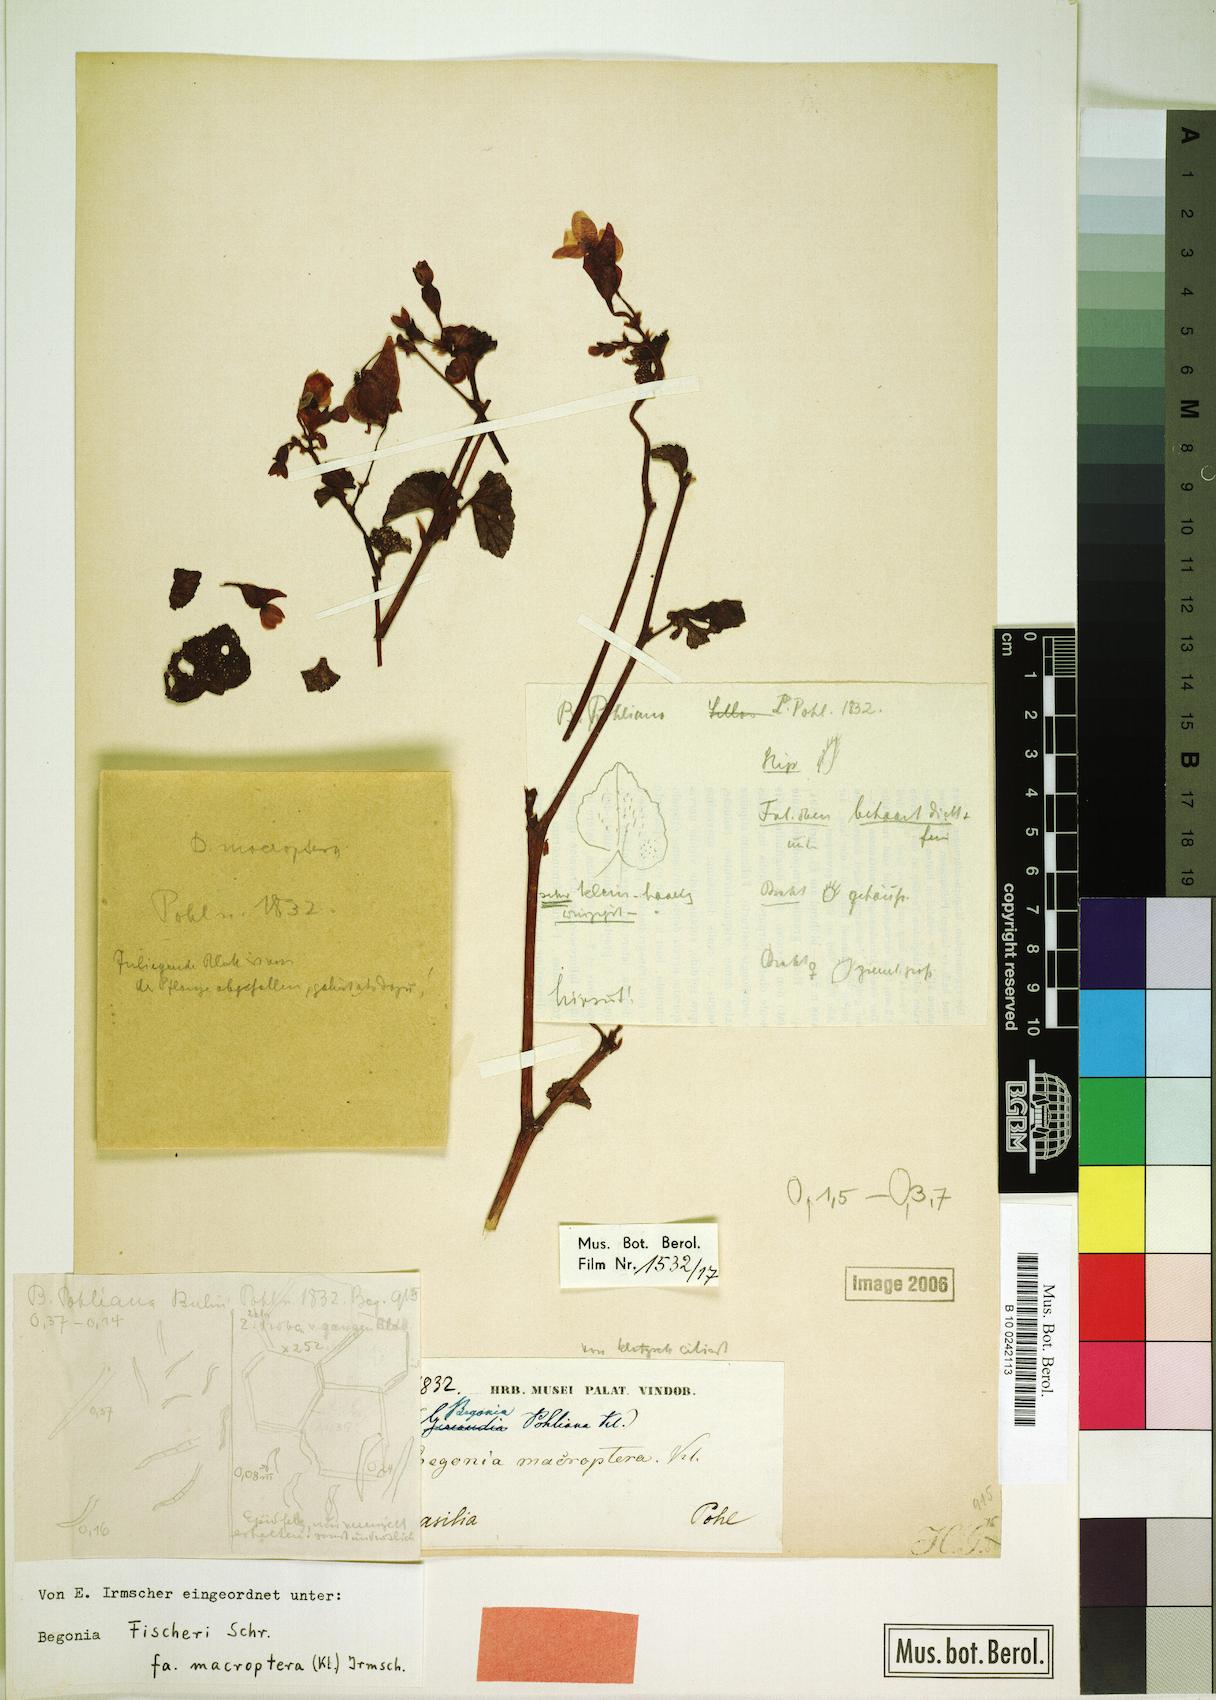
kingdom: Plantae
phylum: Tracheophyta
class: Magnoliopsida
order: Cucurbitales
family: Begoniaceae
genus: Begonia
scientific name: Begonia fischeri
